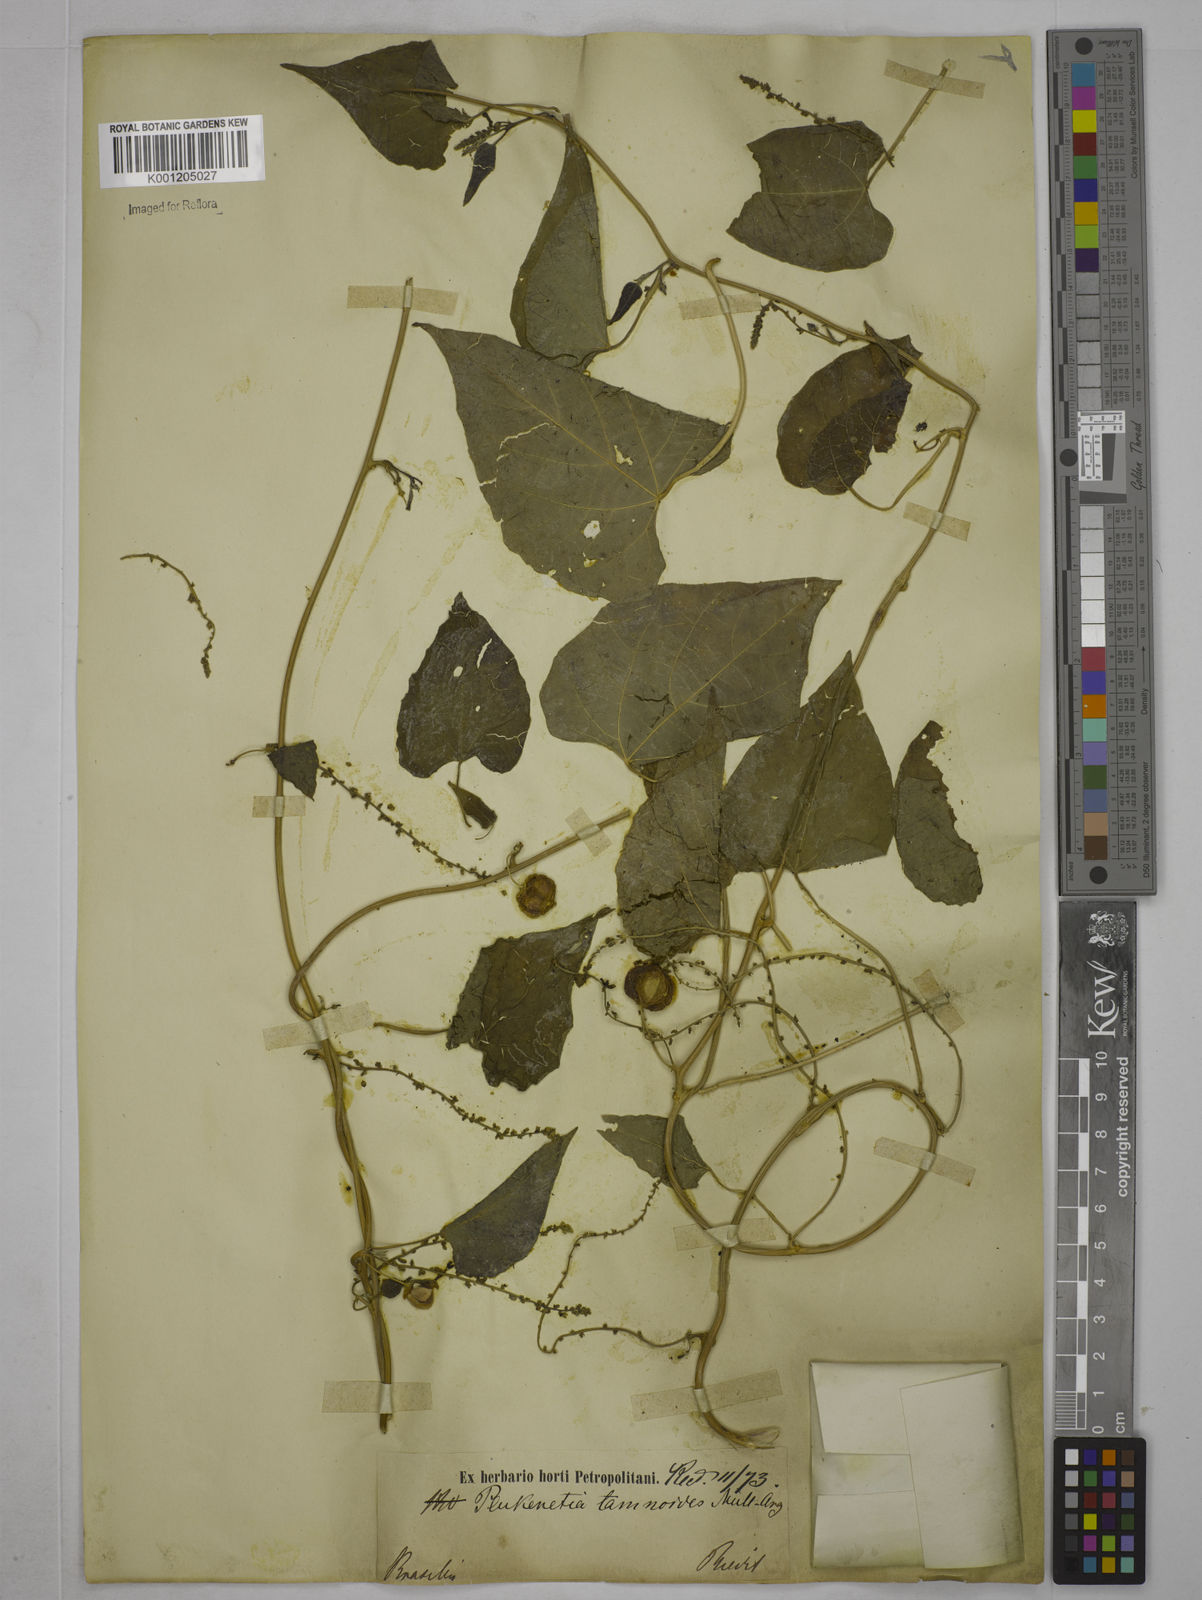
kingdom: Plantae
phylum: Tracheophyta
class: Magnoliopsida
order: Malpighiales
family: Euphorbiaceae
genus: Romanoa
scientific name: Romanoa tamnoides
